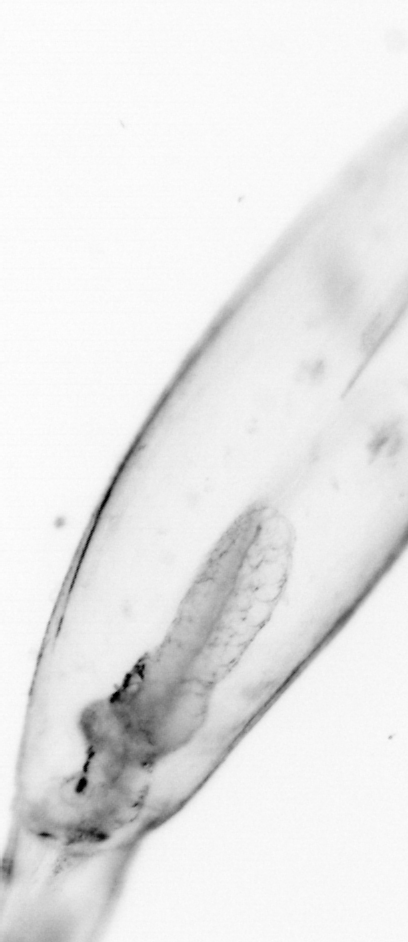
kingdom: Animalia
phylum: Chaetognatha
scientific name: Chaetognatha
